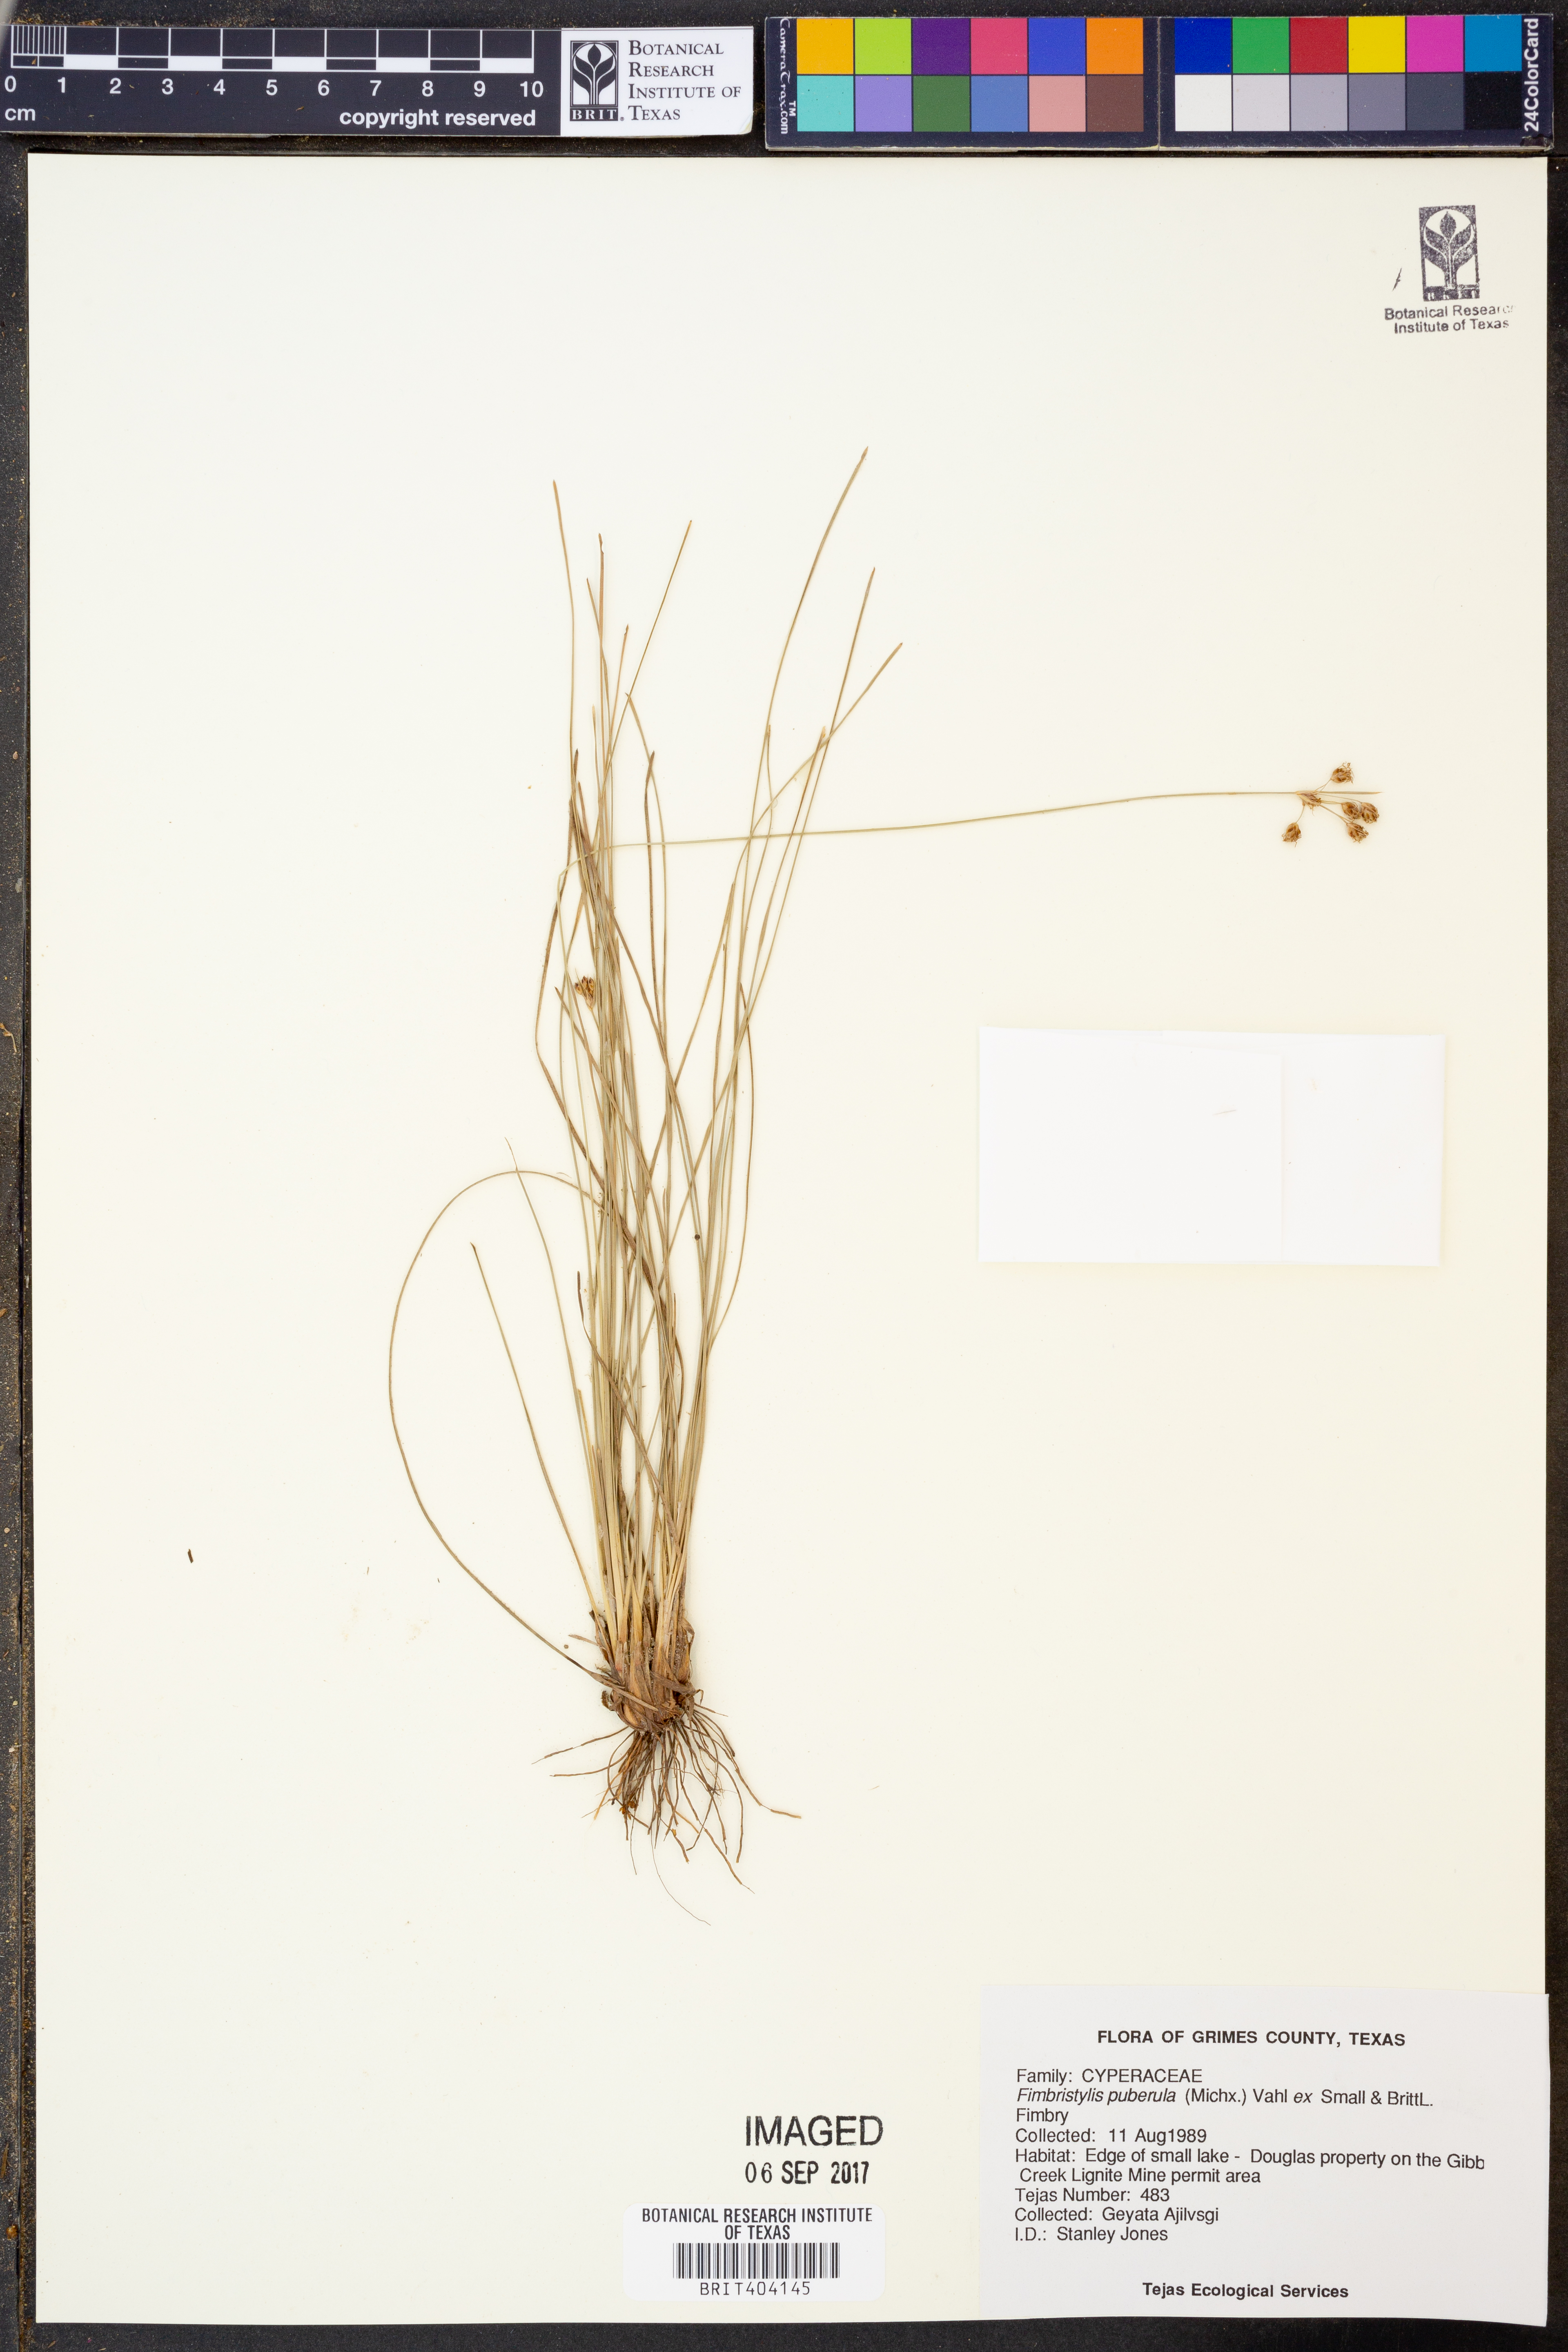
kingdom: Plantae
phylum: Tracheophyta
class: Liliopsida
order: Poales
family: Cyperaceae
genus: Fimbristylis
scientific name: Fimbristylis puberula
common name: Hairy fimbristylis
